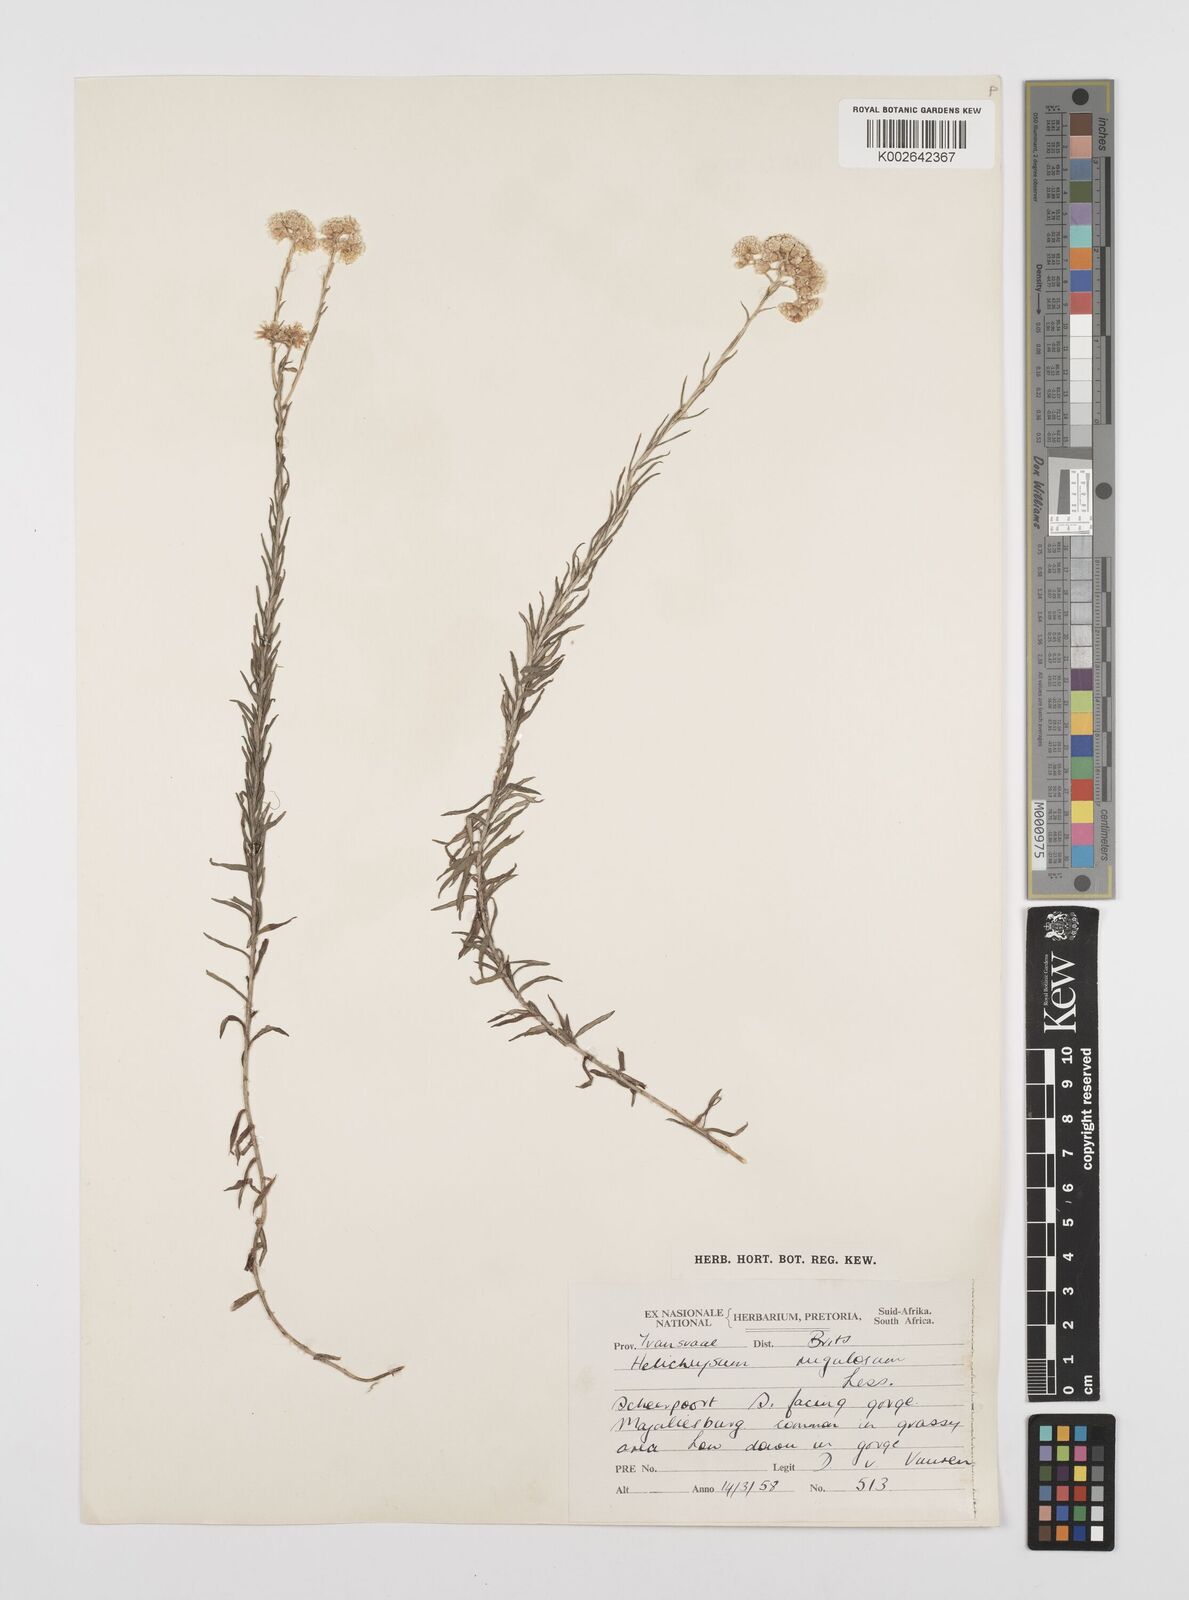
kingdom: Plantae
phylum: Tracheophyta
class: Magnoliopsida
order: Asterales
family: Asteraceae
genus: Helichrysum
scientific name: Helichrysum rugulosum
